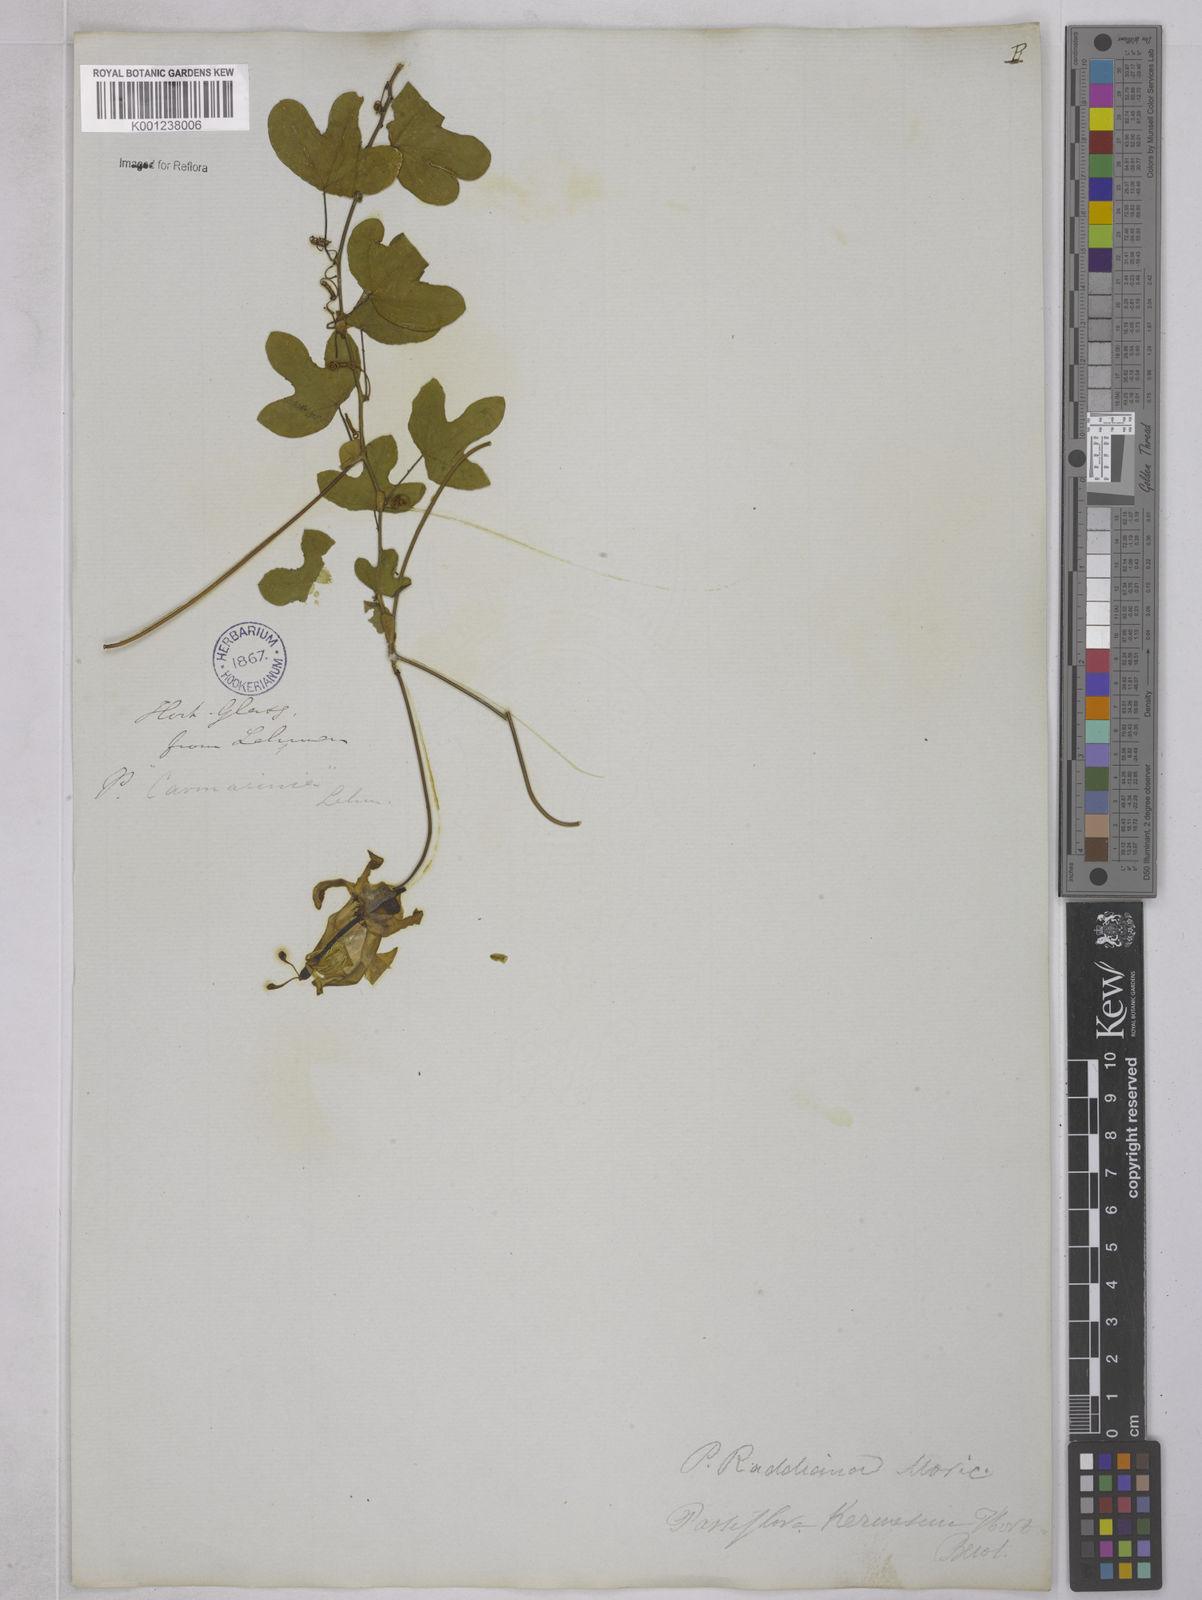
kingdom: Plantae
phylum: Tracheophyta
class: Magnoliopsida
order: Malpighiales
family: Passifloraceae
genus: Passiflora
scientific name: Passiflora kermesina
